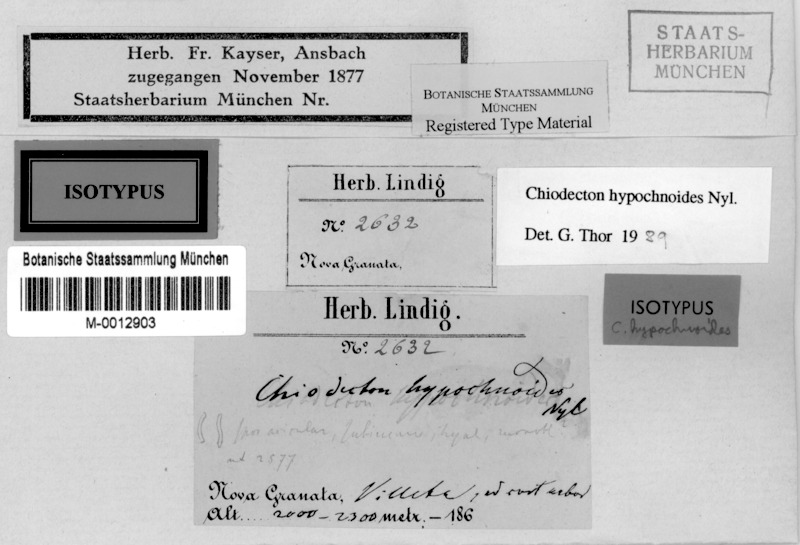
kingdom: Fungi
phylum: Ascomycota
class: Arthoniomycetes
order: Arthoniales
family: Roccellaceae
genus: Chiodecton
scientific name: Chiodecton hypochnoides
